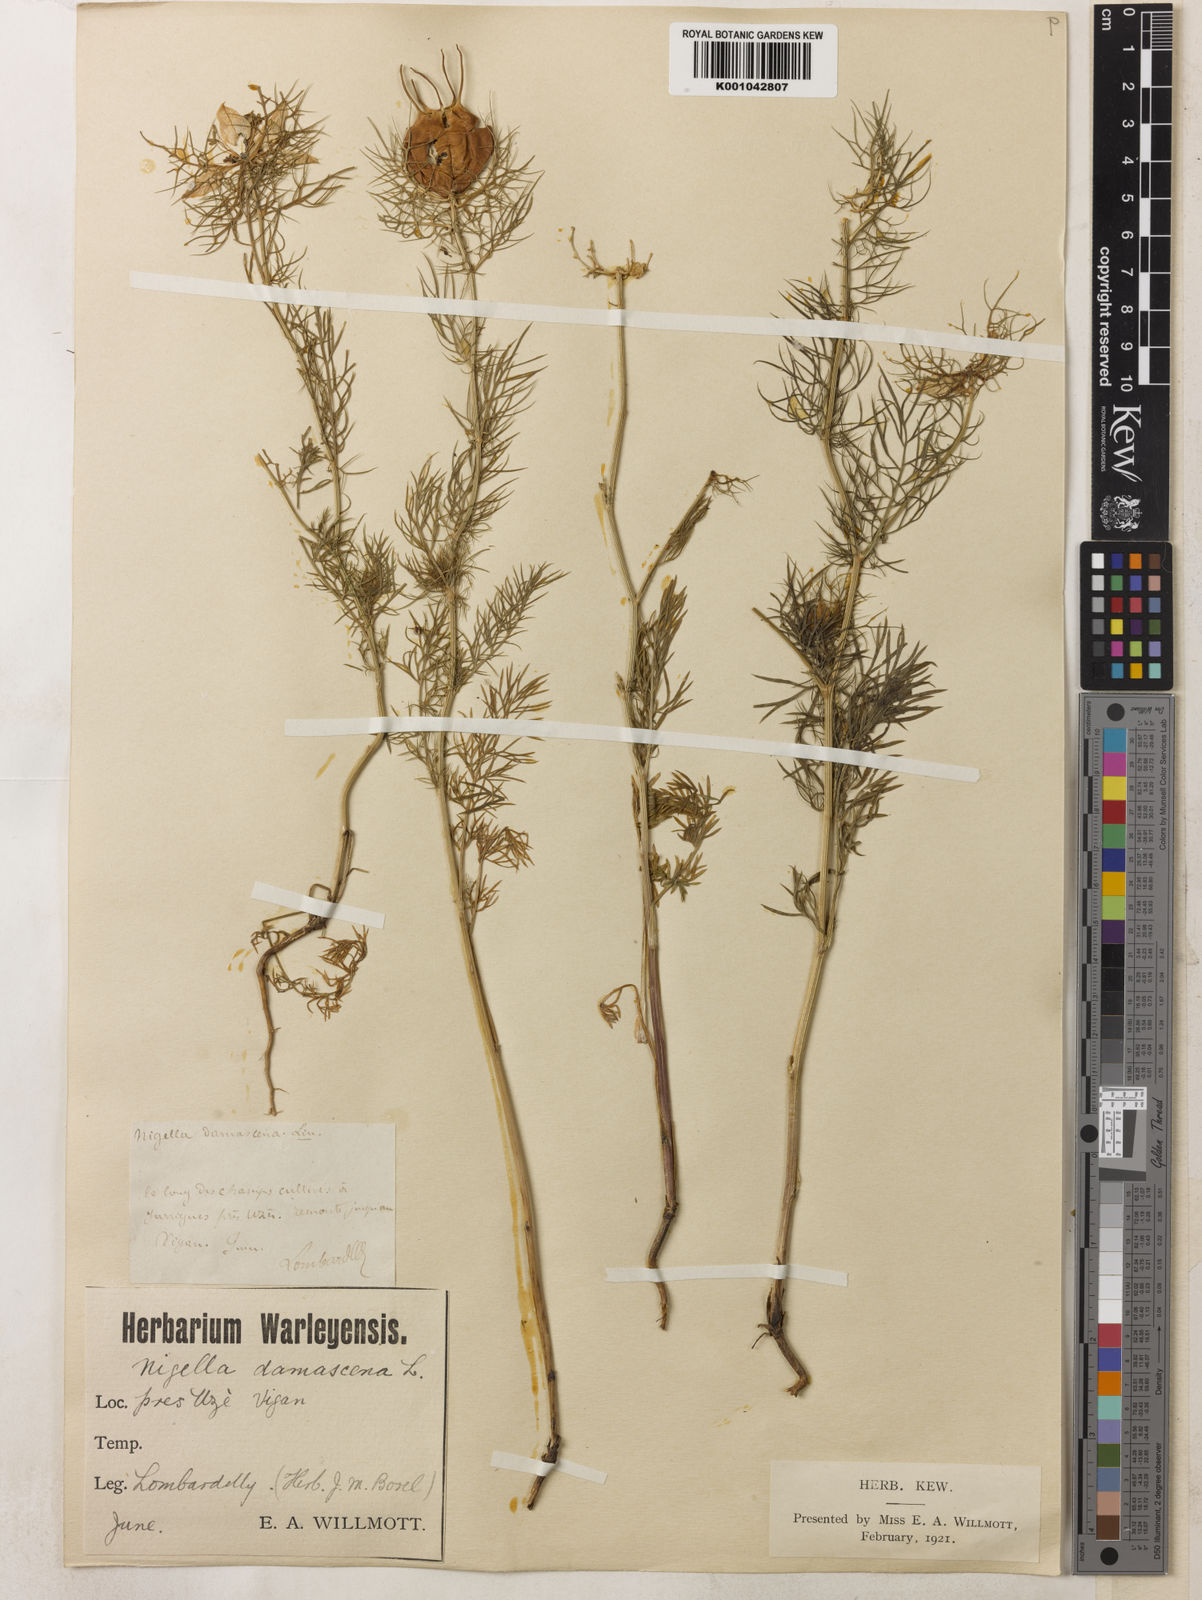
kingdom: Plantae
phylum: Tracheophyta
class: Magnoliopsida
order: Ranunculales
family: Ranunculaceae
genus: Nigella
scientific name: Nigella damascena
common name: Love-in-a-mist
